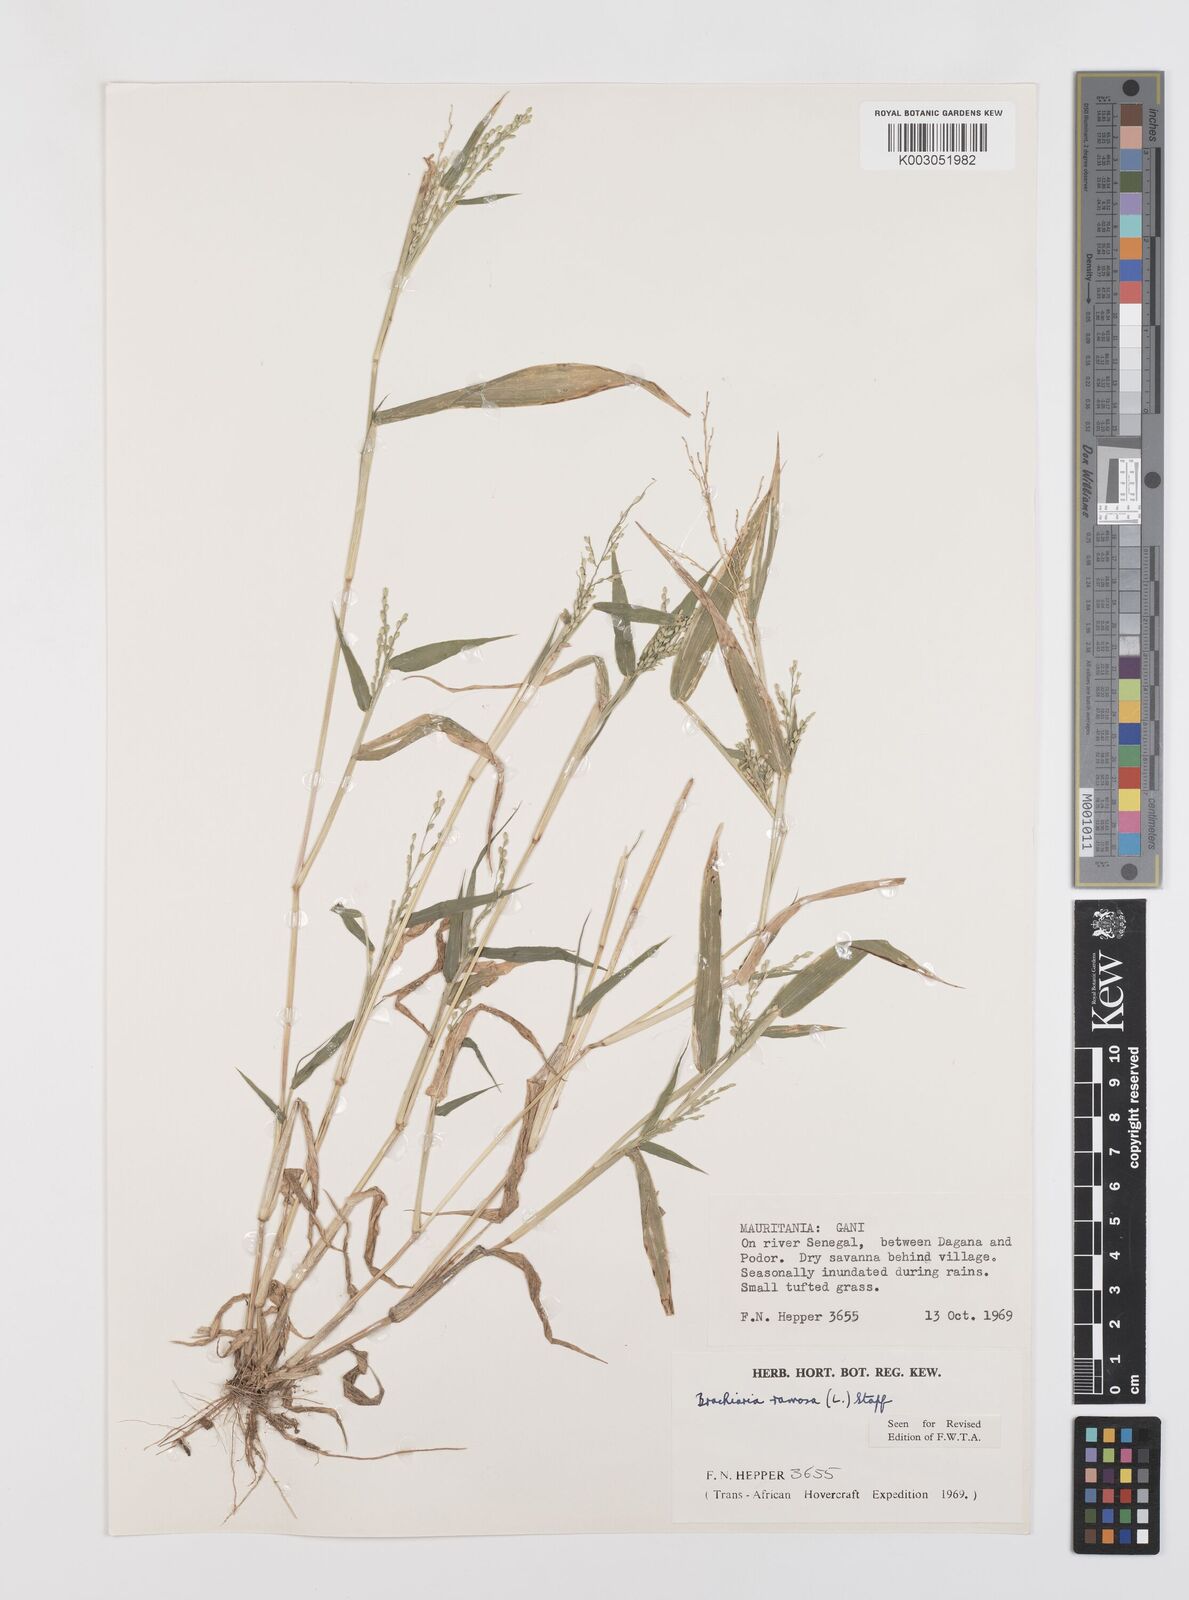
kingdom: Plantae
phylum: Tracheophyta
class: Liliopsida
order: Poales
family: Poaceae
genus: Urochloa
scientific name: Urochloa ramosa
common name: Browntop millet
